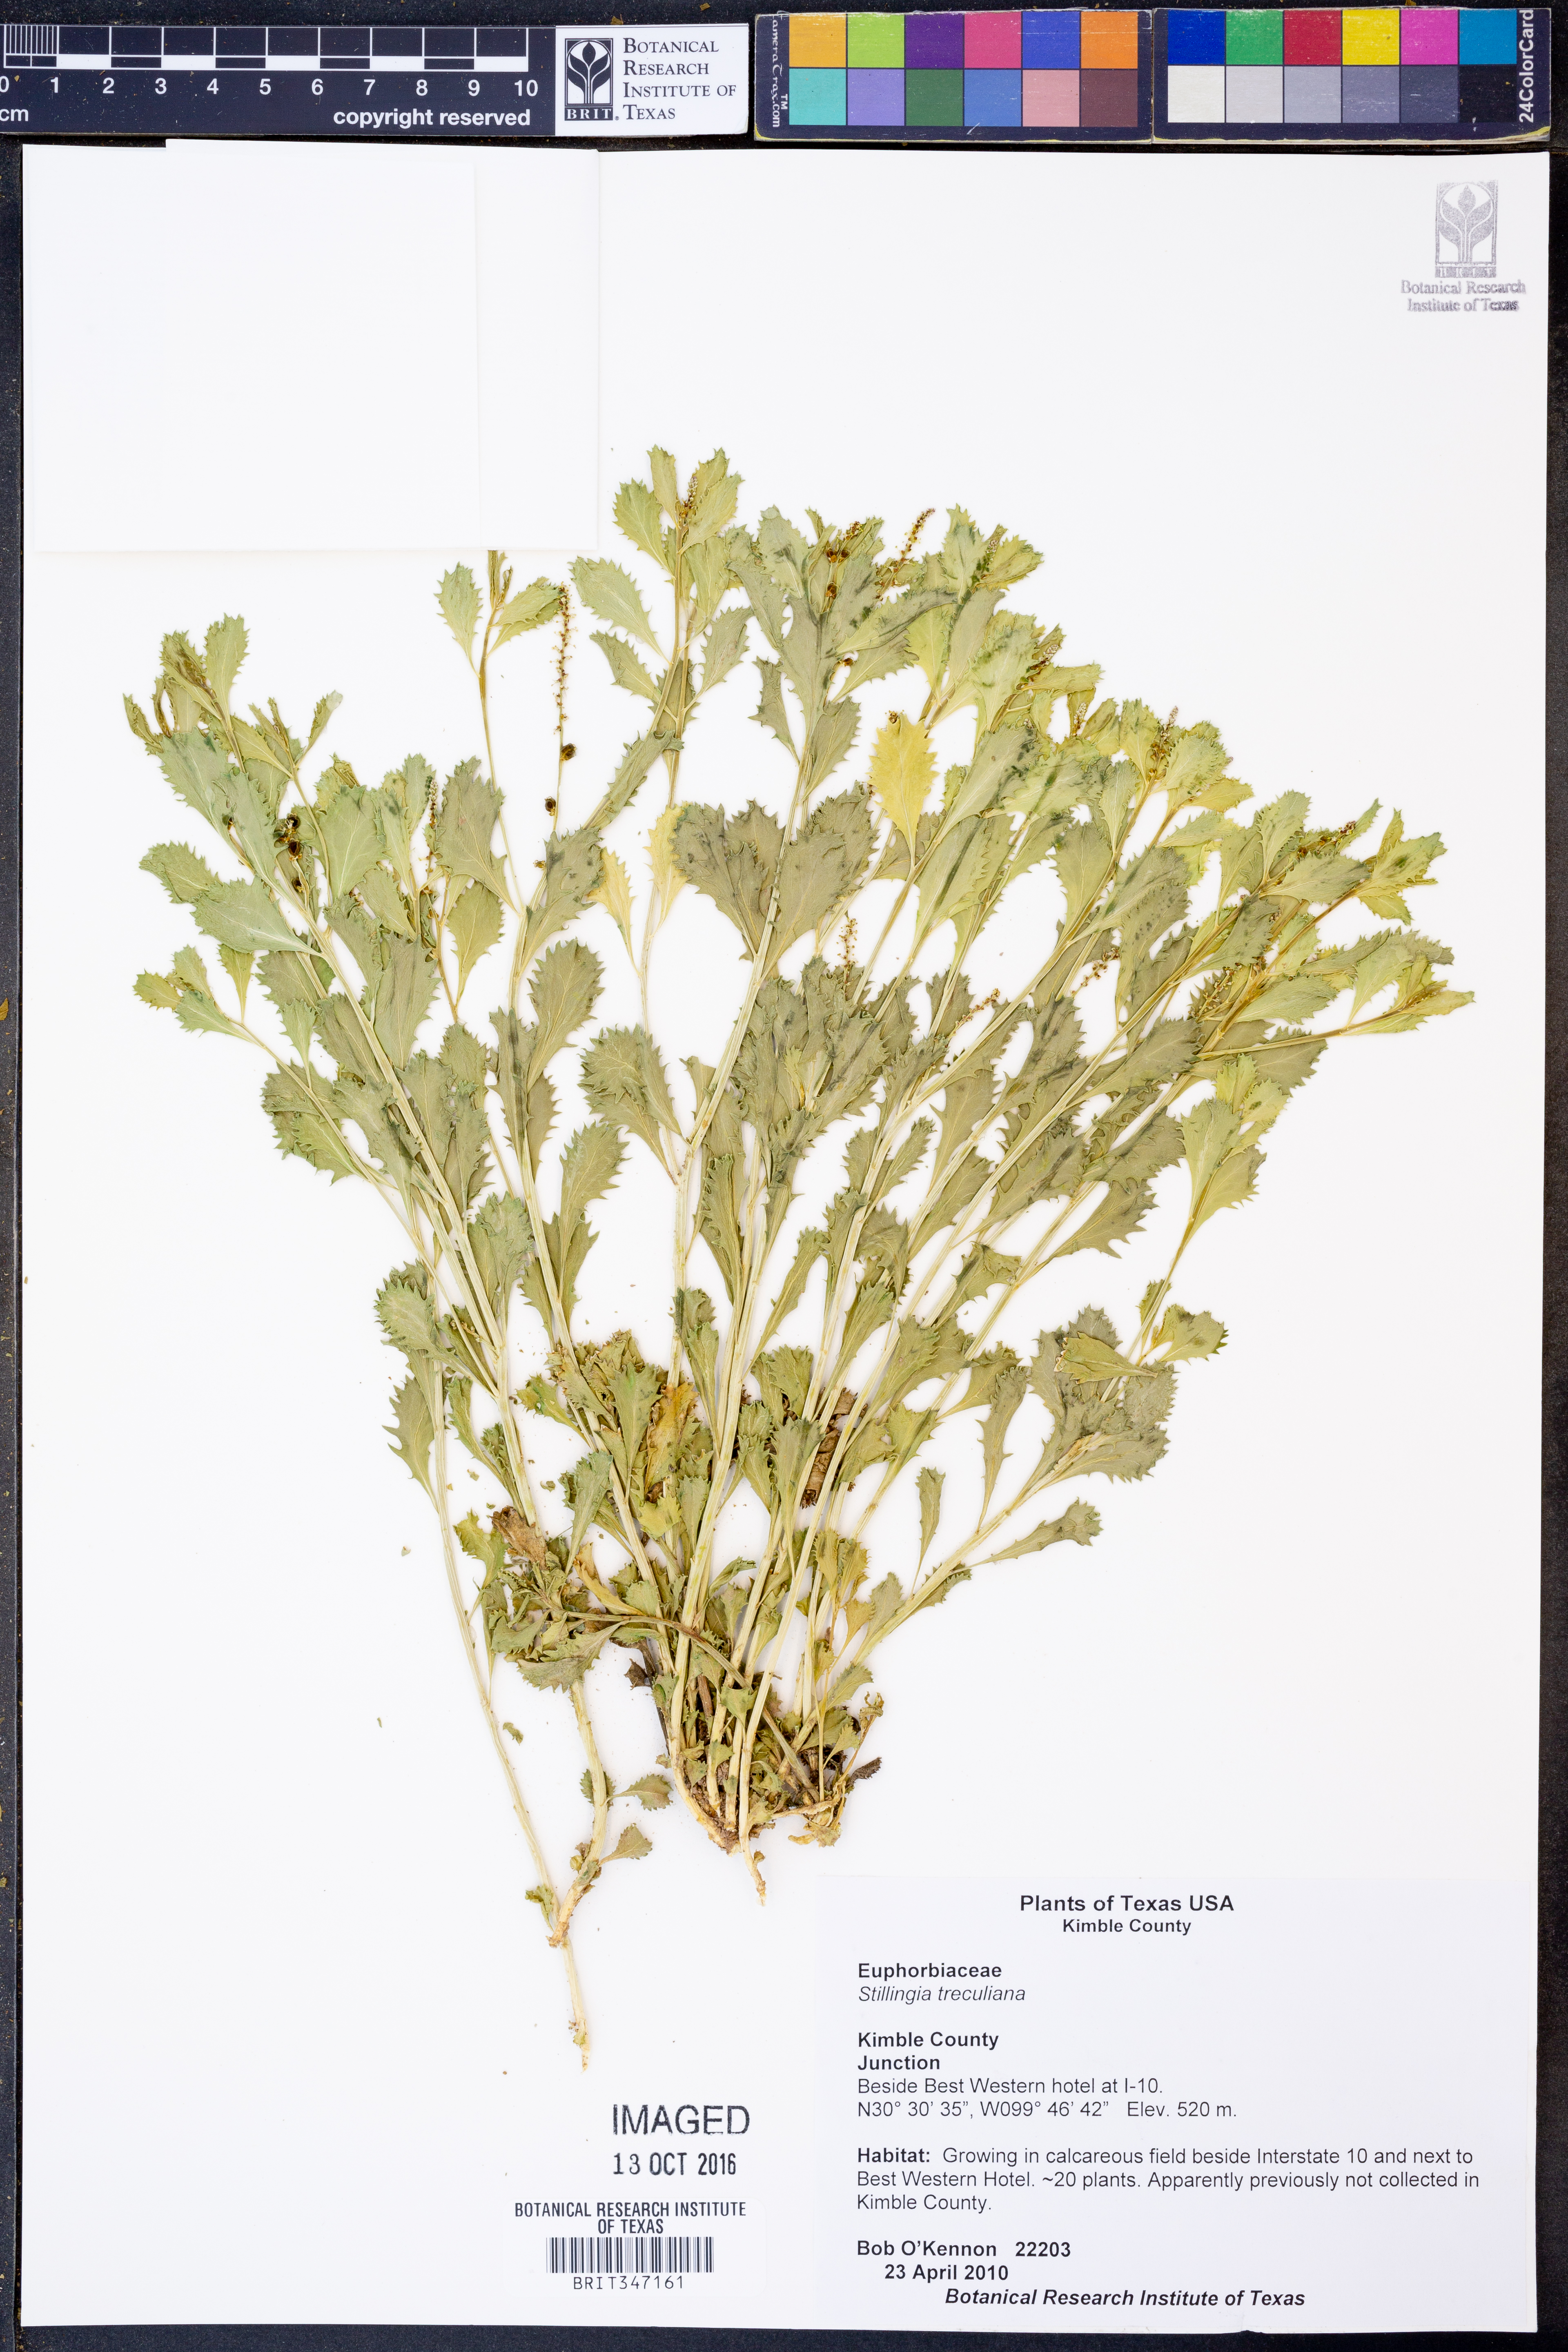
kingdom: Plantae
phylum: Tracheophyta
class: Magnoliopsida
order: Malpighiales
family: Euphorbiaceae
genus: Stillingia
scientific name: Stillingia treculiana
